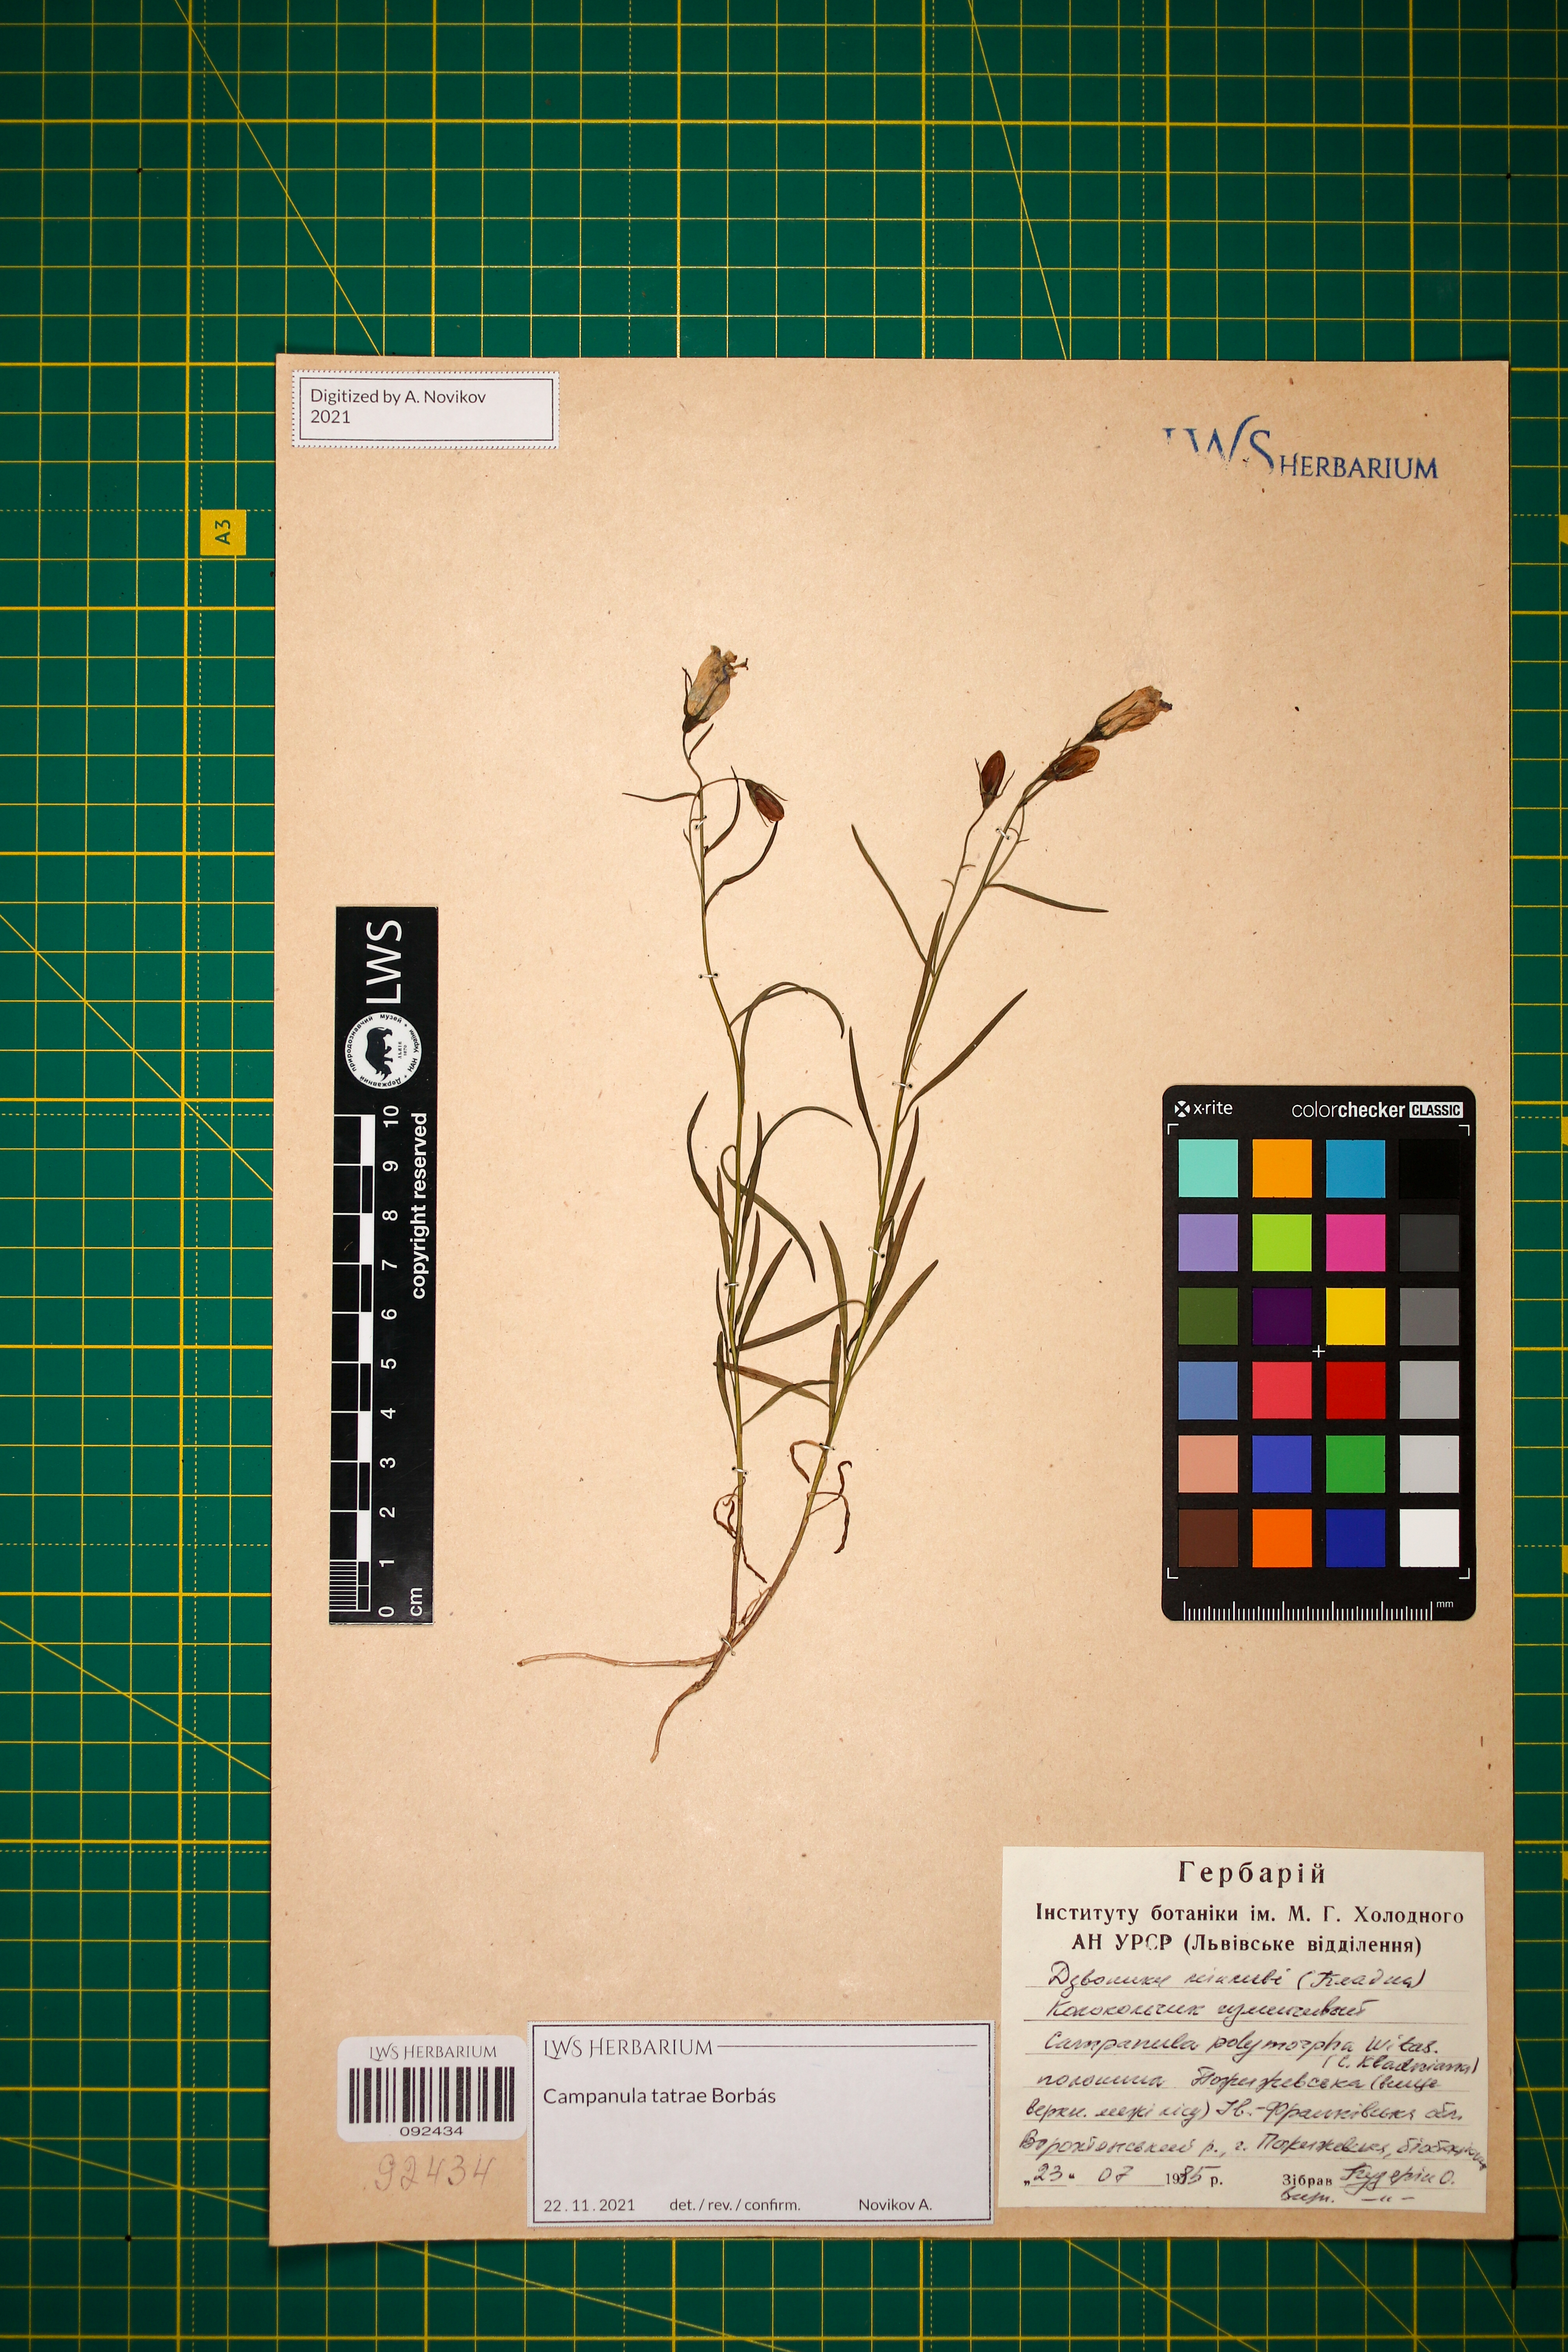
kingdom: Plantae
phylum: Tracheophyta
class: Magnoliopsida
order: Asterales
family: Campanulaceae
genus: Campanula
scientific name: Campanula kladniana
